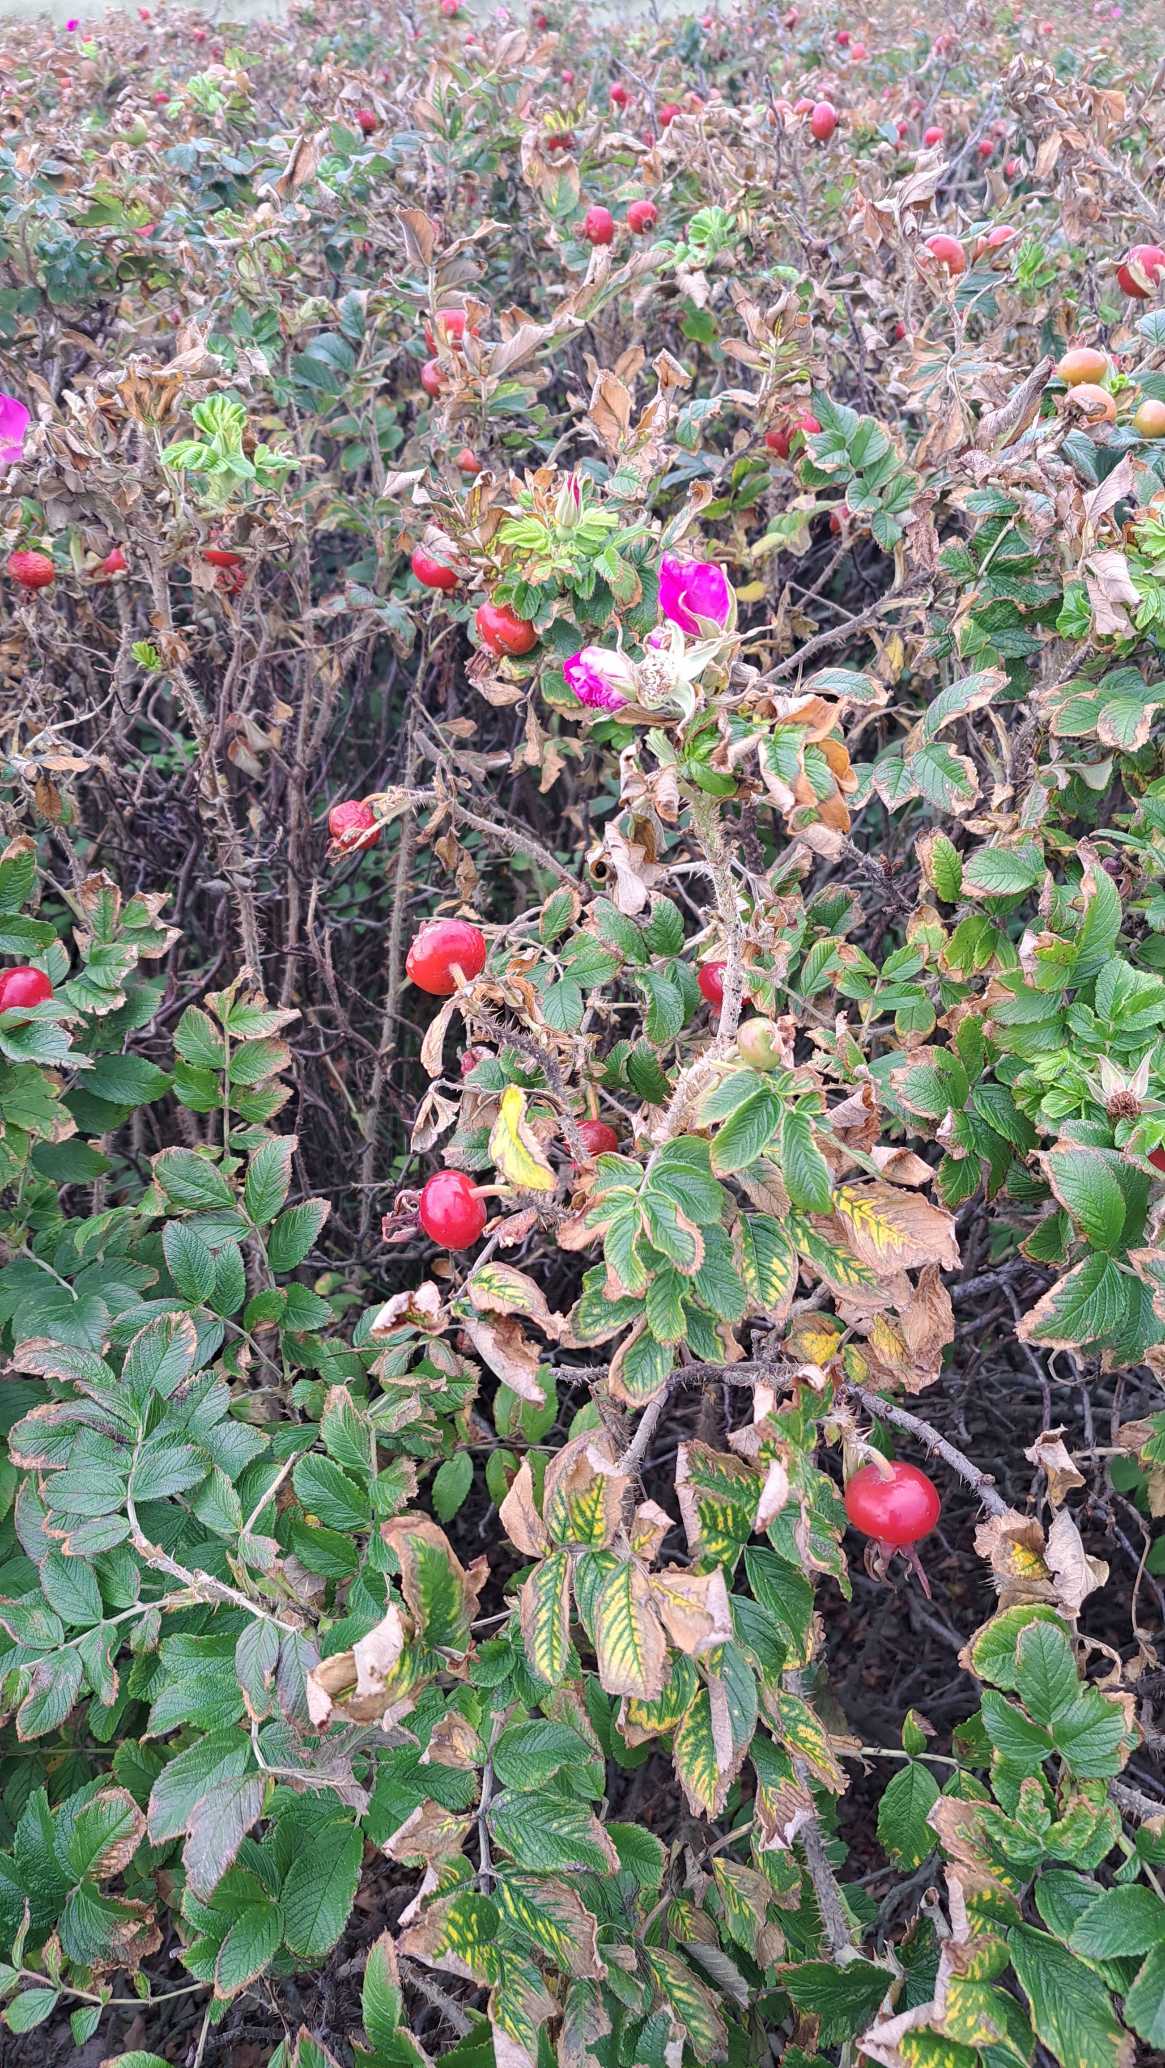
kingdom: Plantae
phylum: Tracheophyta
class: Magnoliopsida
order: Rosales
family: Rosaceae
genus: Rosa
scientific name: Rosa rugosa
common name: Rynket rose
